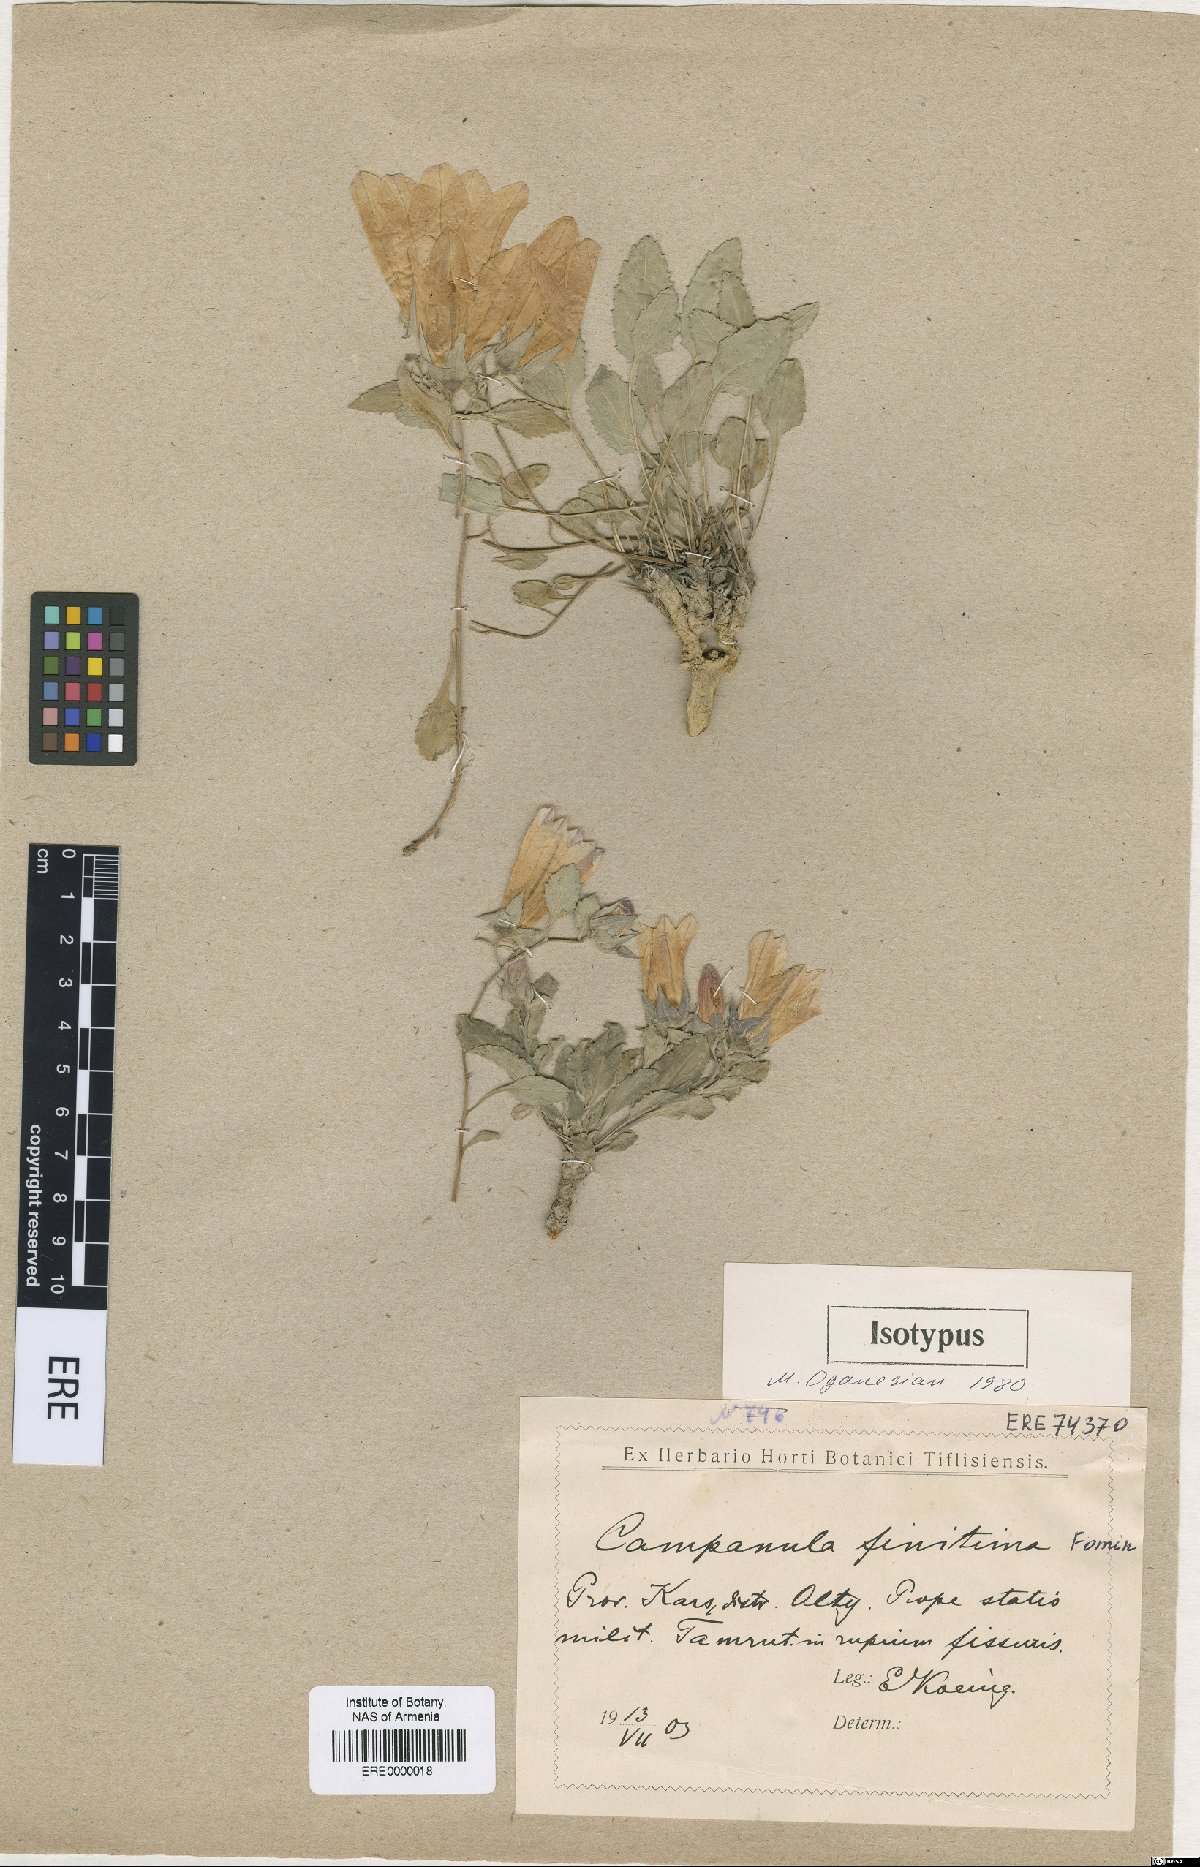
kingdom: Plantae
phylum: Tracheophyta
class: Magnoliopsida
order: Asterales
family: Campanulaceae
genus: Campanula
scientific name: Campanula betulifolia
